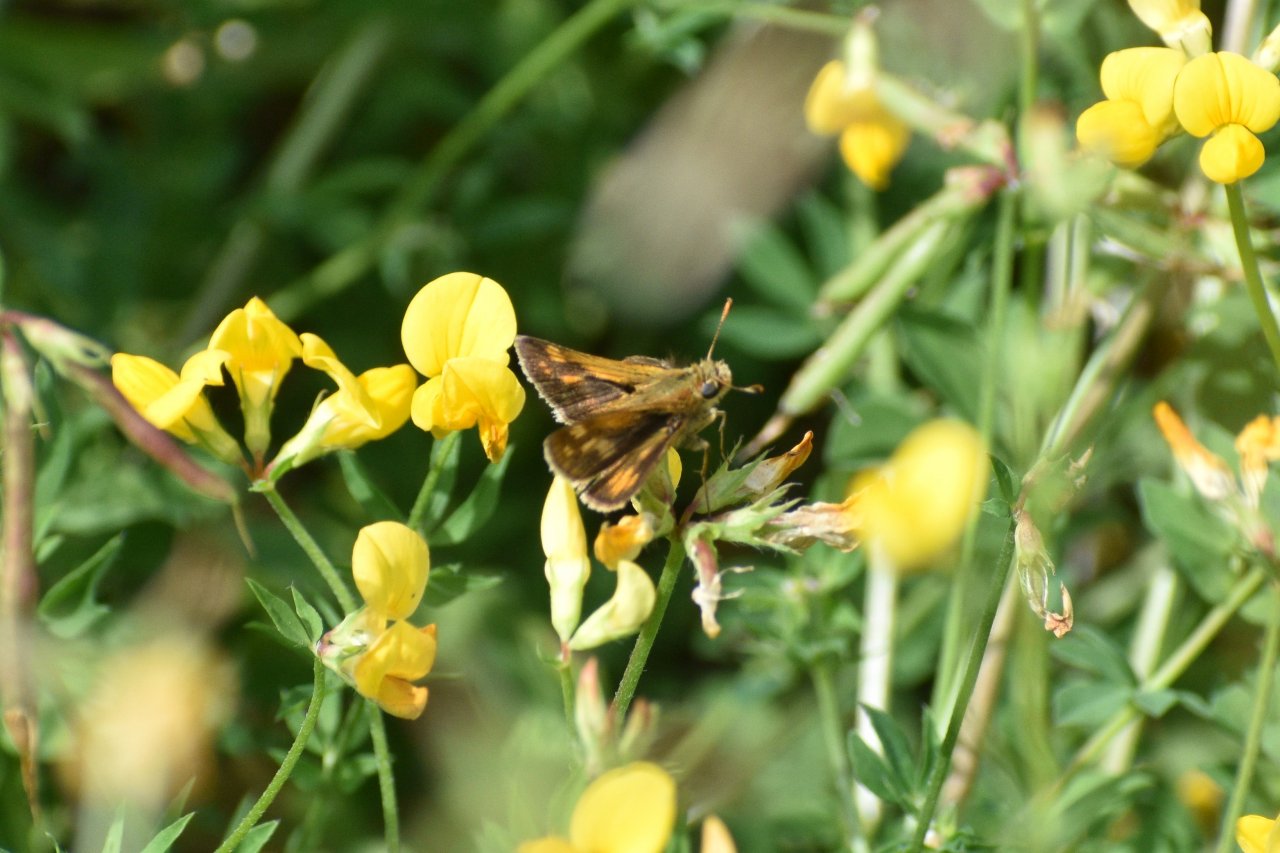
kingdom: Animalia
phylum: Arthropoda
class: Insecta
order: Lepidoptera
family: Hesperiidae
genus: Polites
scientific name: Polites coras
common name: Peck's Skipper
